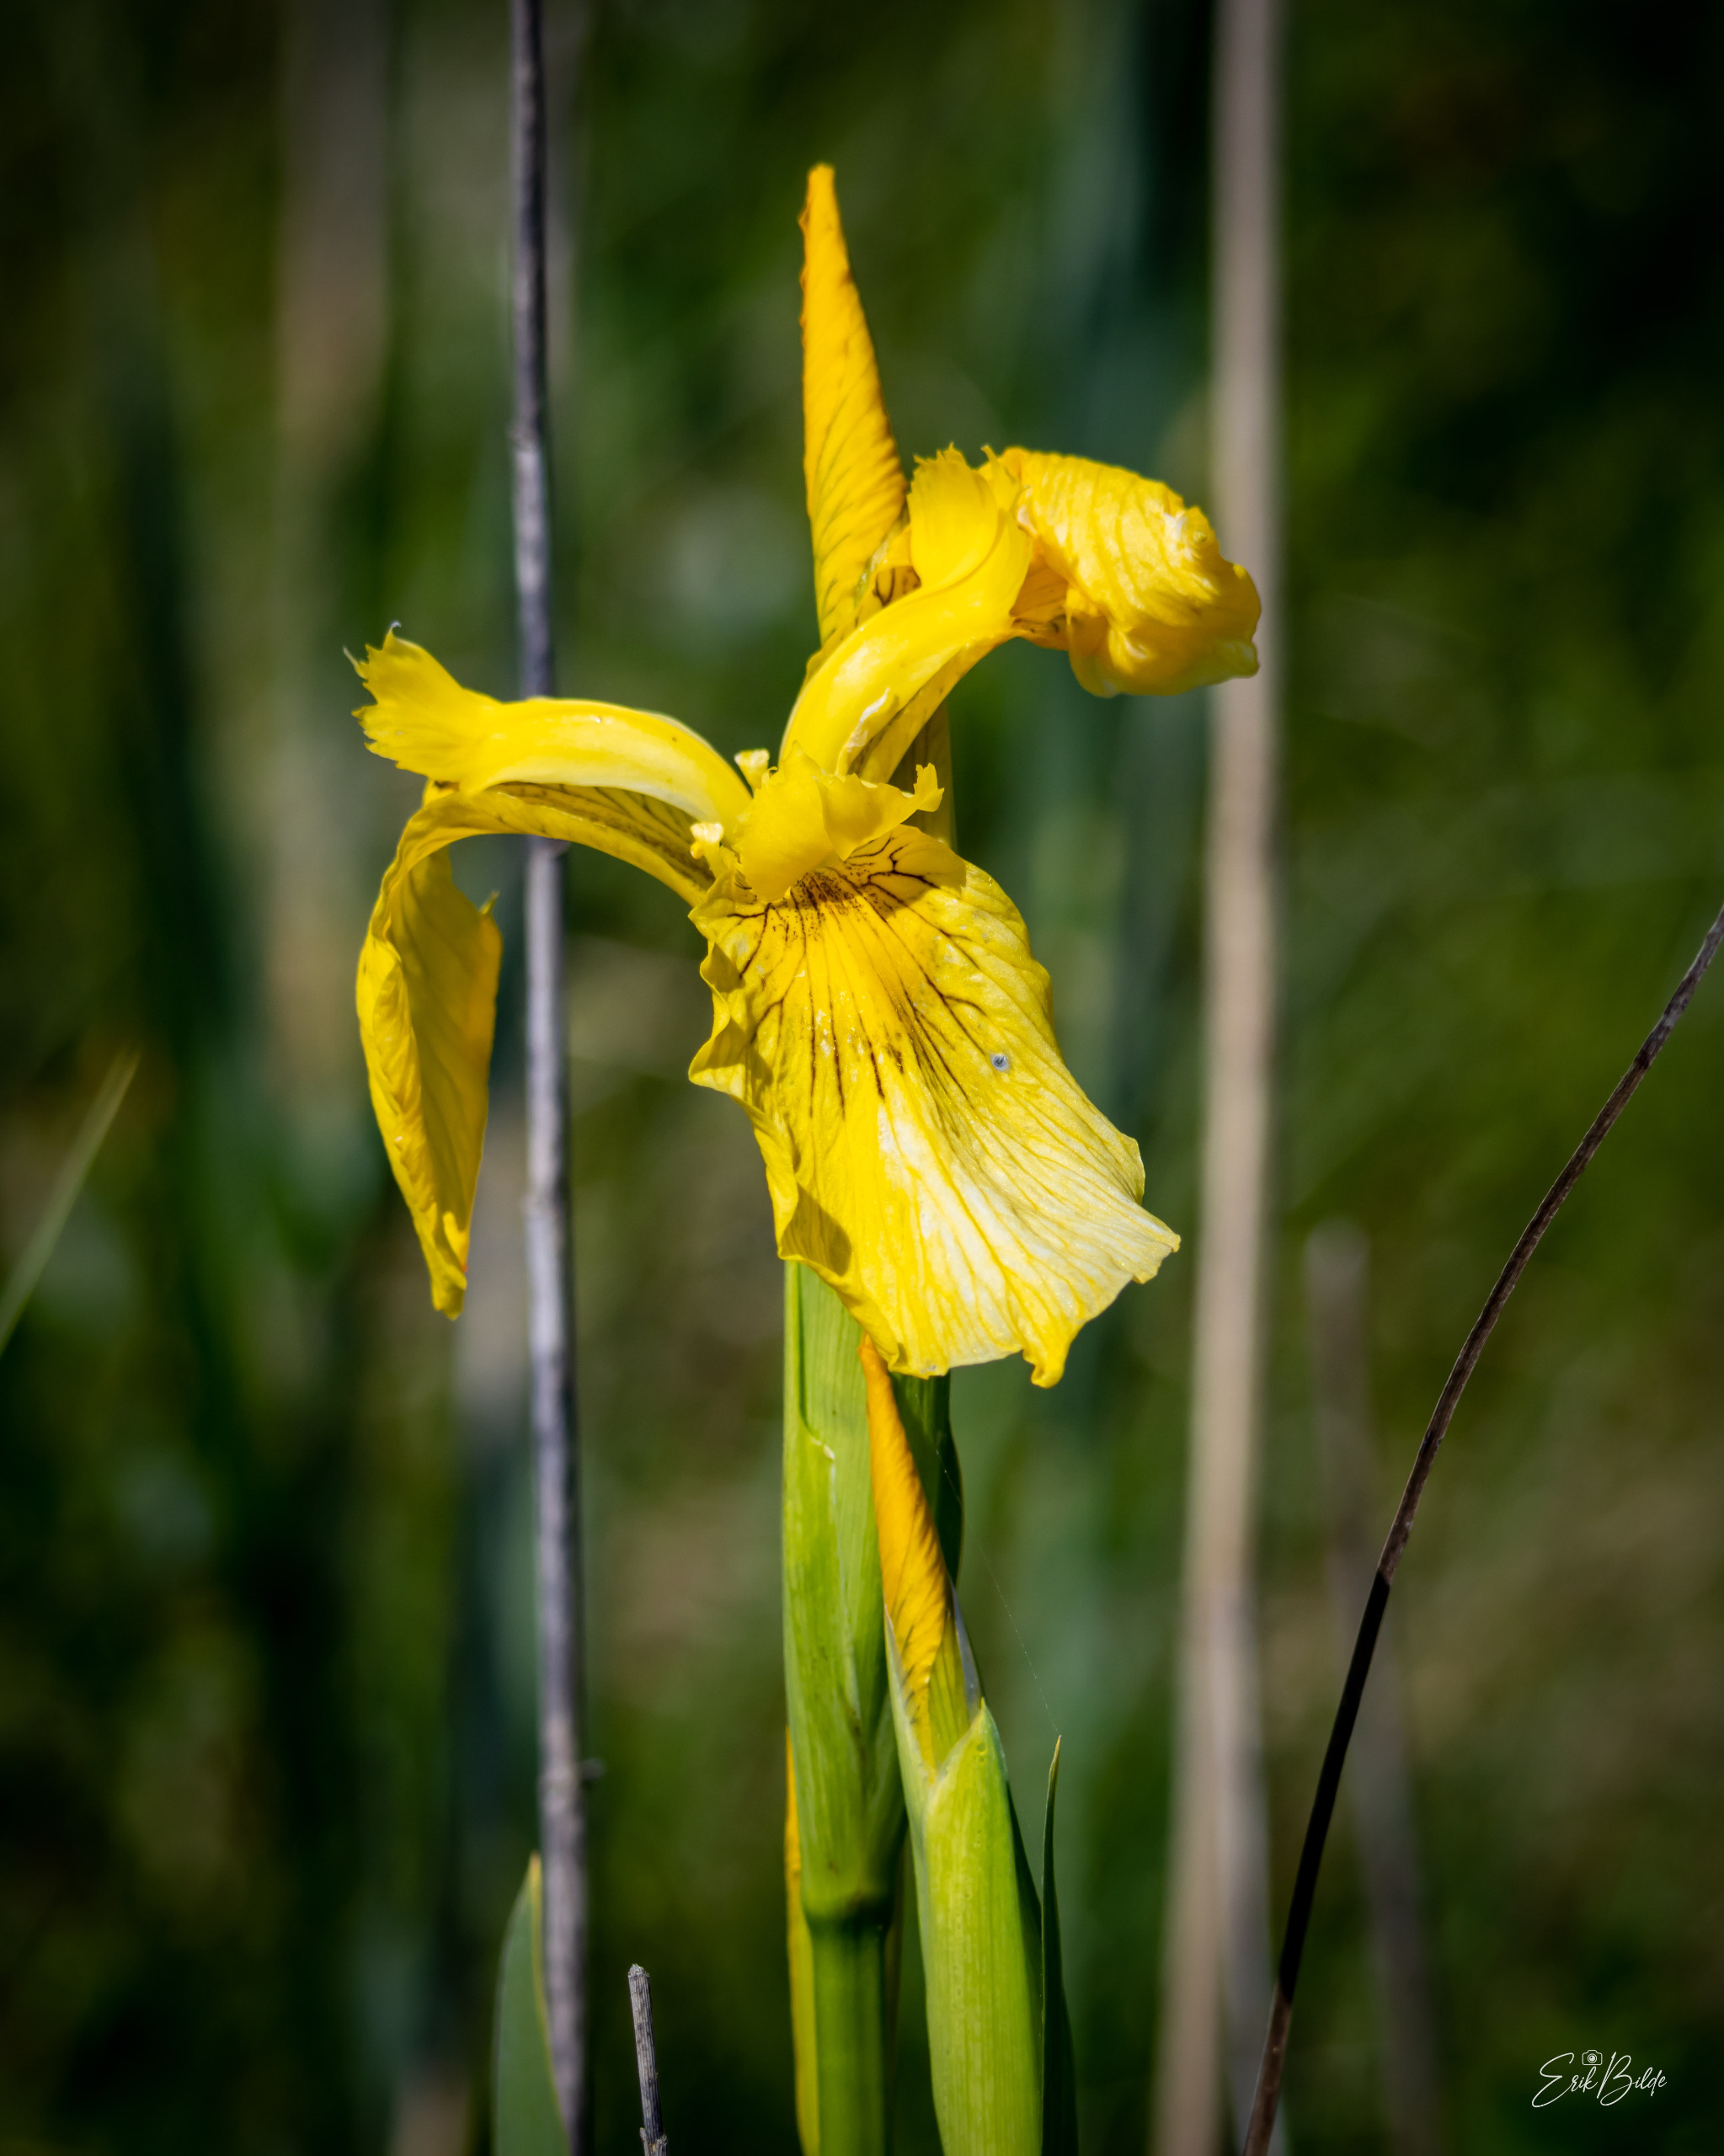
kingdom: Plantae
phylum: Tracheophyta
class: Liliopsida
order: Asparagales
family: Iridaceae
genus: Iris
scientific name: Iris pseudacorus
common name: Gul iris
